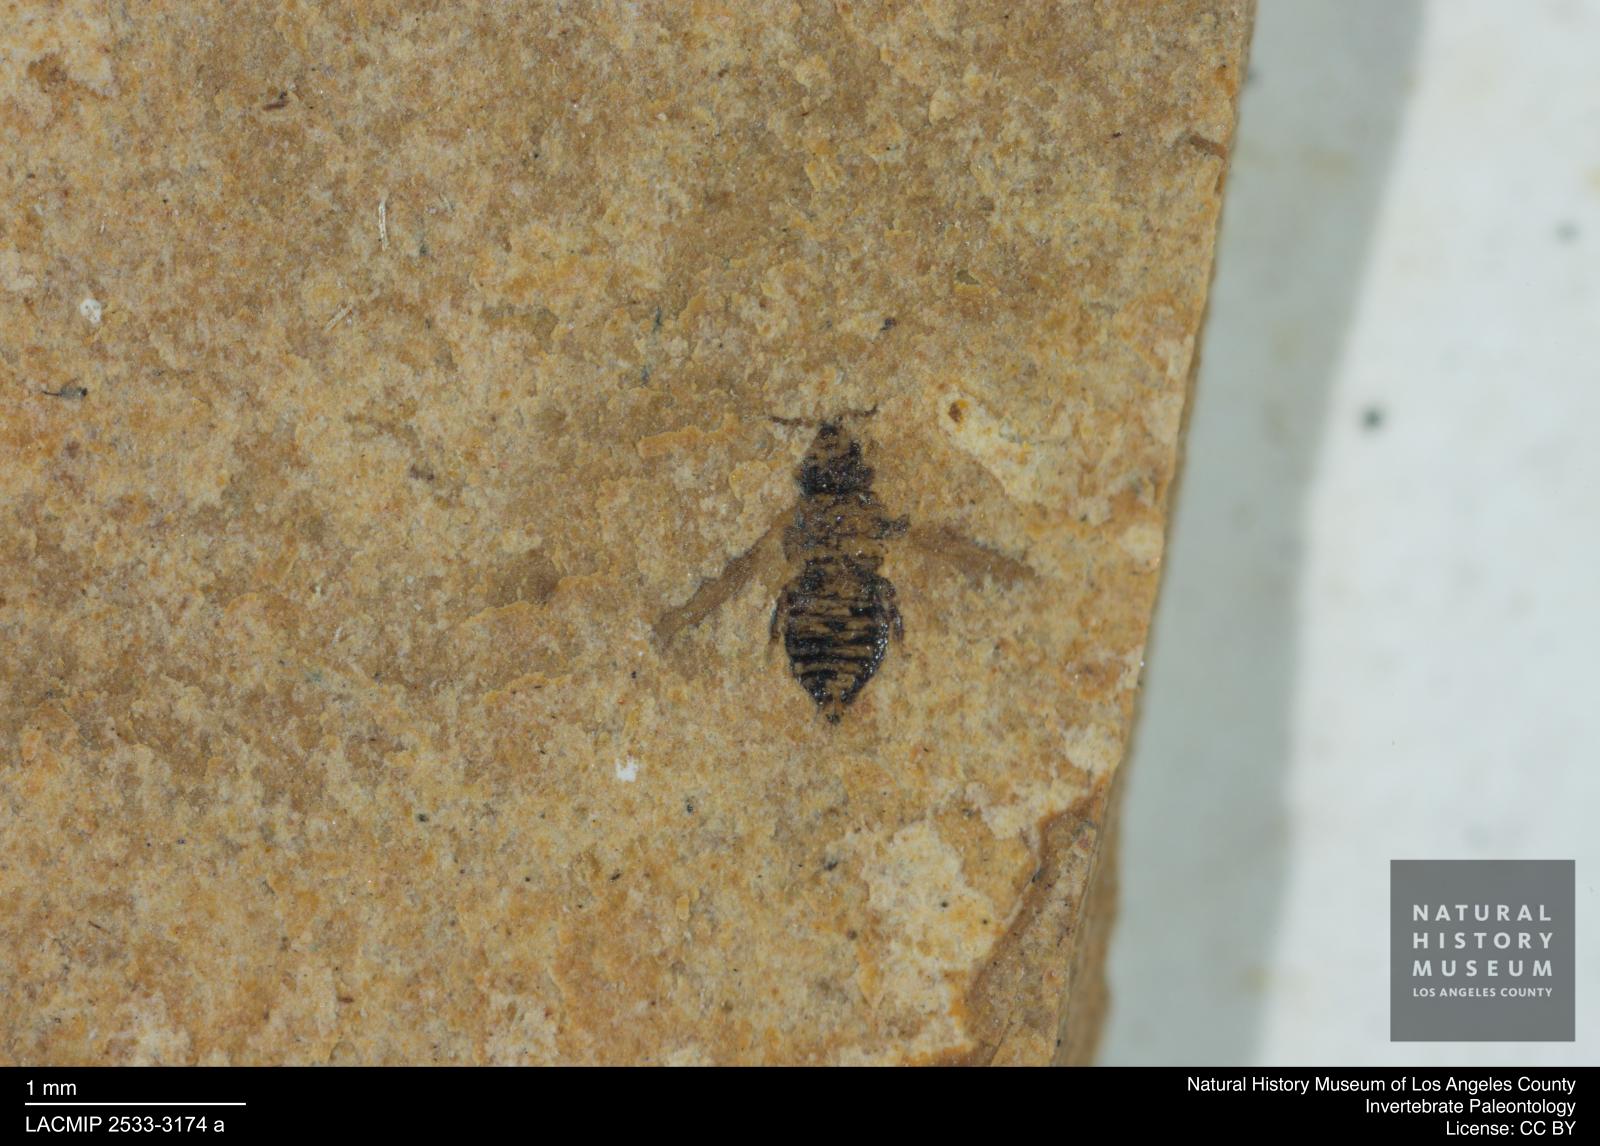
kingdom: Animalia
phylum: Arthropoda
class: Insecta
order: Thysanoptera
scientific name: Thysanoptera
